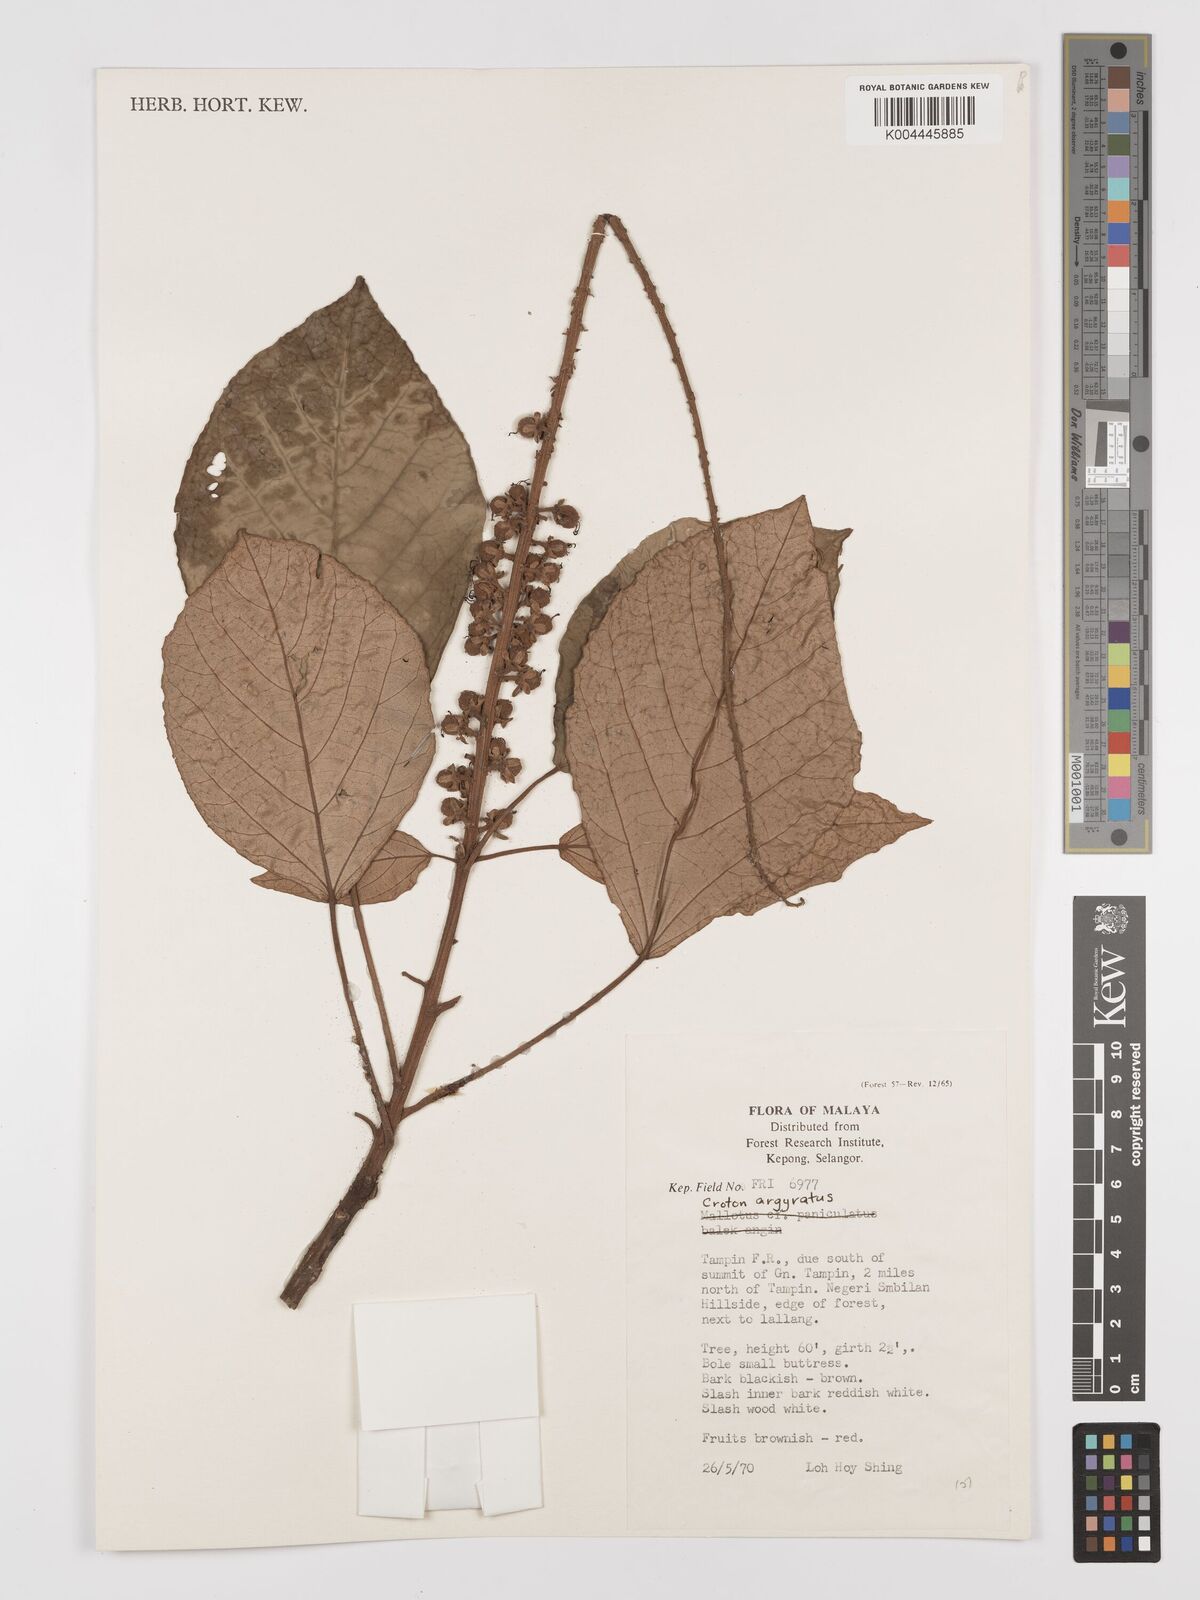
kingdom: Plantae
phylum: Tracheophyta
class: Magnoliopsida
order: Malpighiales
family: Euphorbiaceae
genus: Croton
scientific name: Croton argyratus
